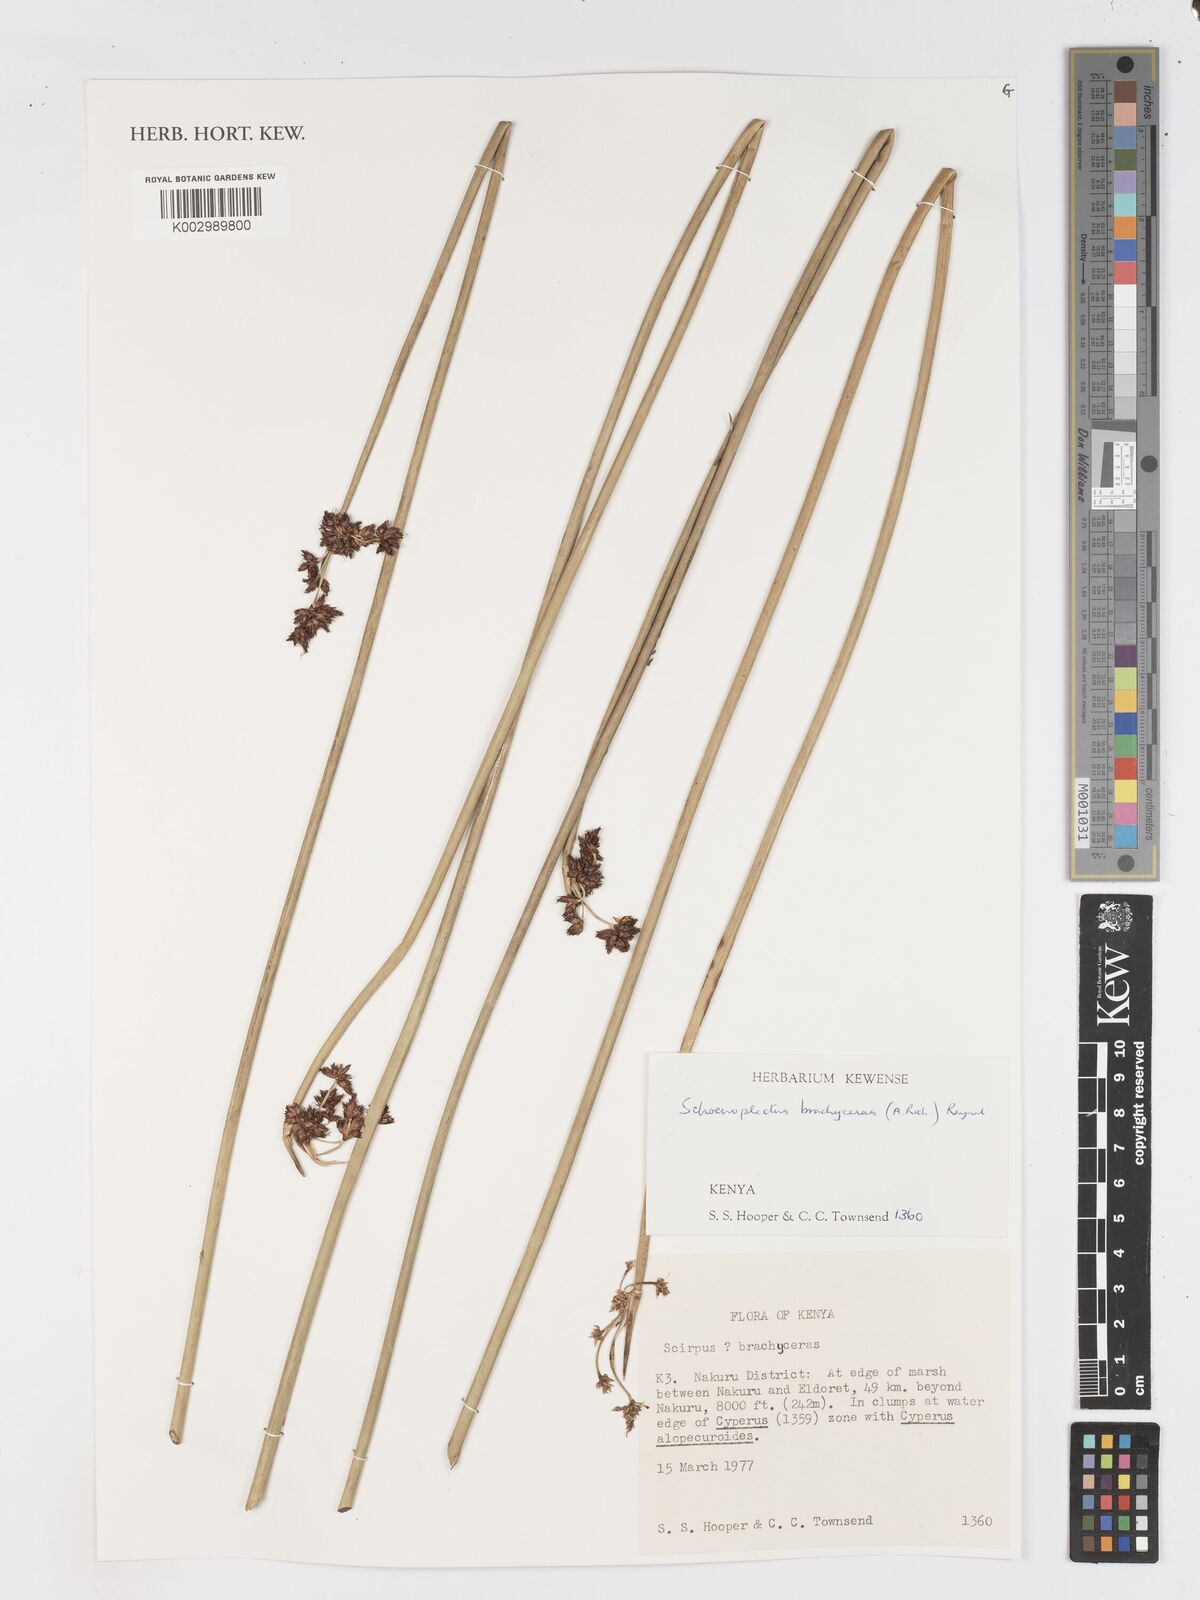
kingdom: Plantae
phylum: Tracheophyta
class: Liliopsida
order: Poales
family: Cyperaceae
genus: Schoenoplectiella
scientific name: Schoenoplectiella brachyceras
